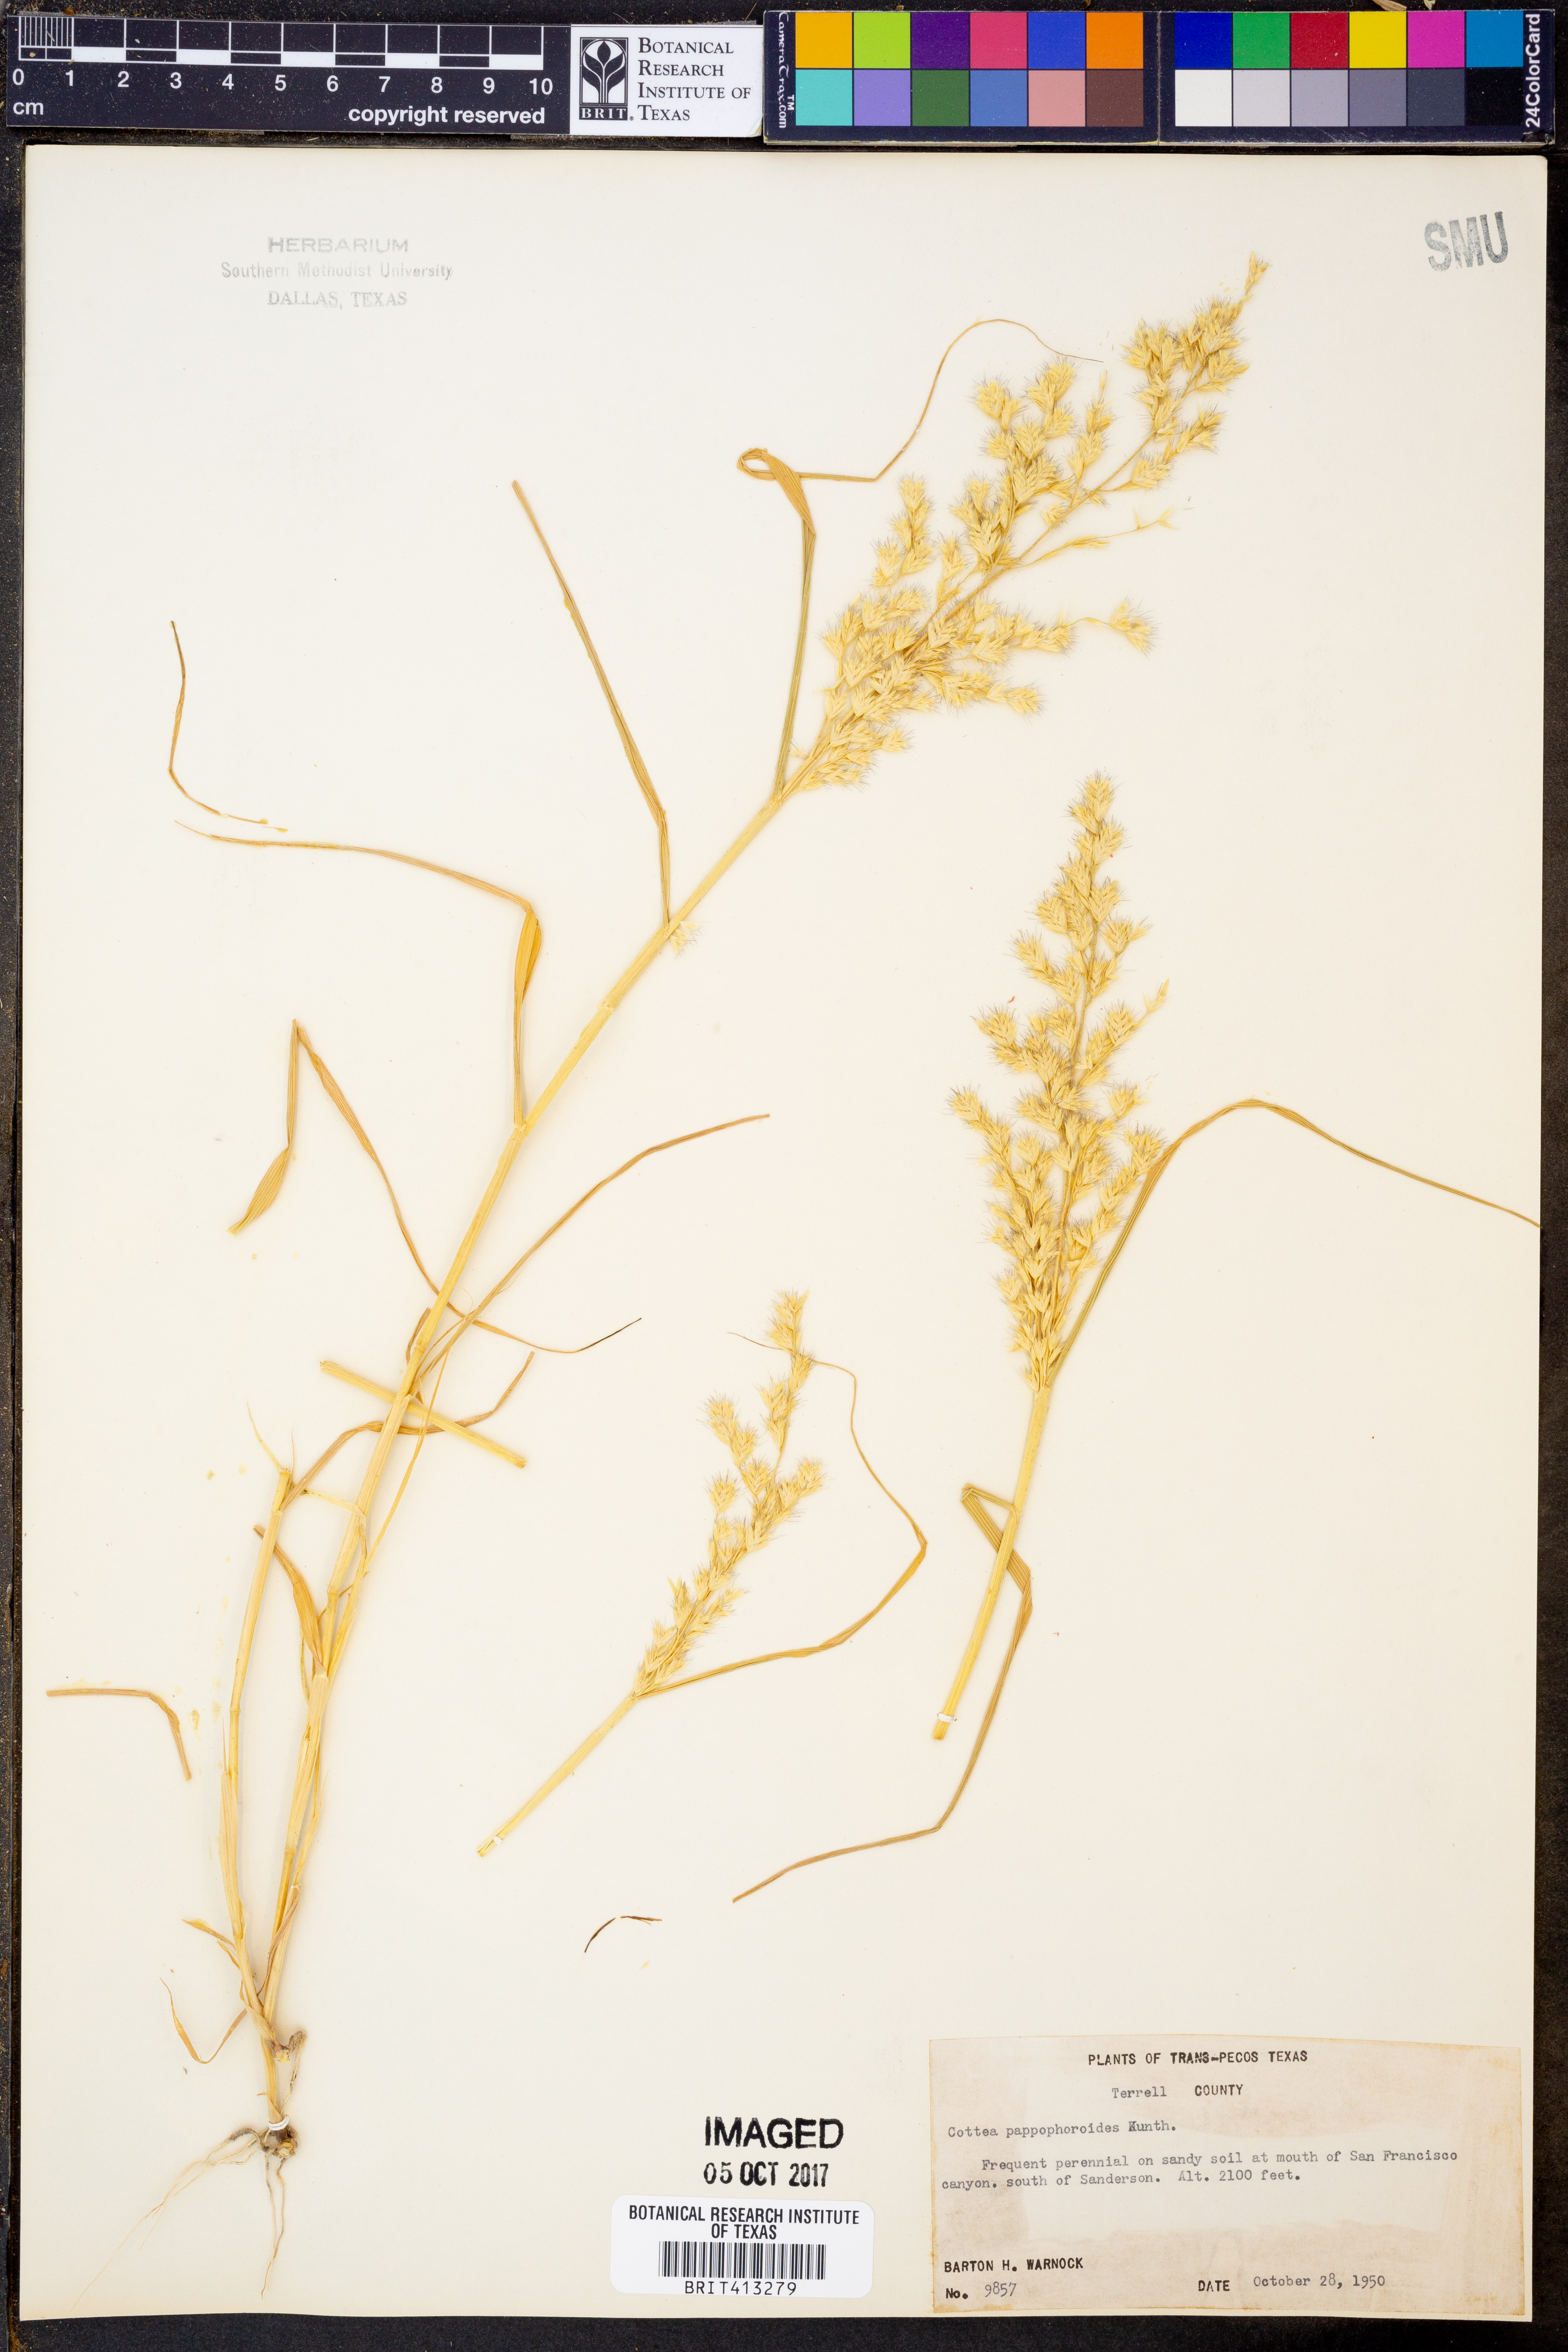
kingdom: Plantae
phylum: Tracheophyta
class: Liliopsida
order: Poales
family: Poaceae
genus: Cottea
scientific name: Cottea pappophoroides
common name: Cotta grass
